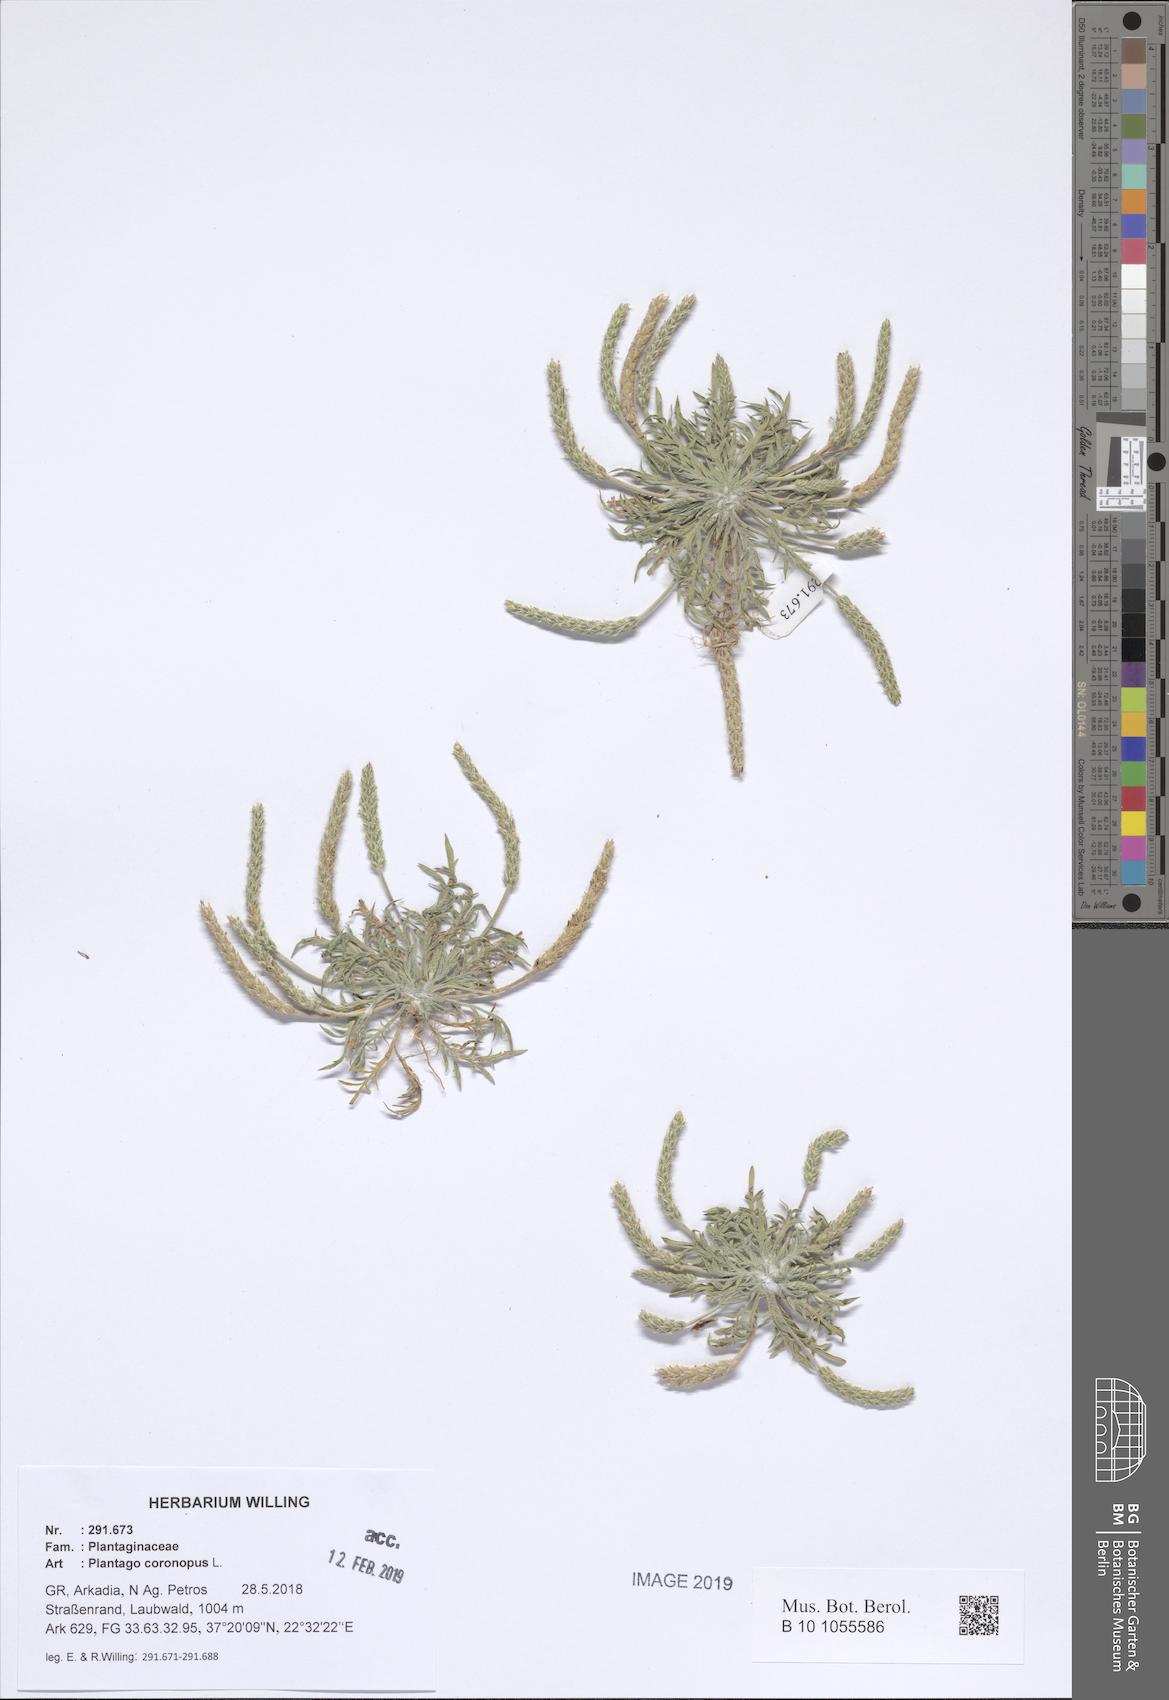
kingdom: Plantae
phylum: Tracheophyta
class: Magnoliopsida
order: Lamiales
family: Plantaginaceae
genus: Plantago
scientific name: Plantago coronopus
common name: Buck's-horn plantain
